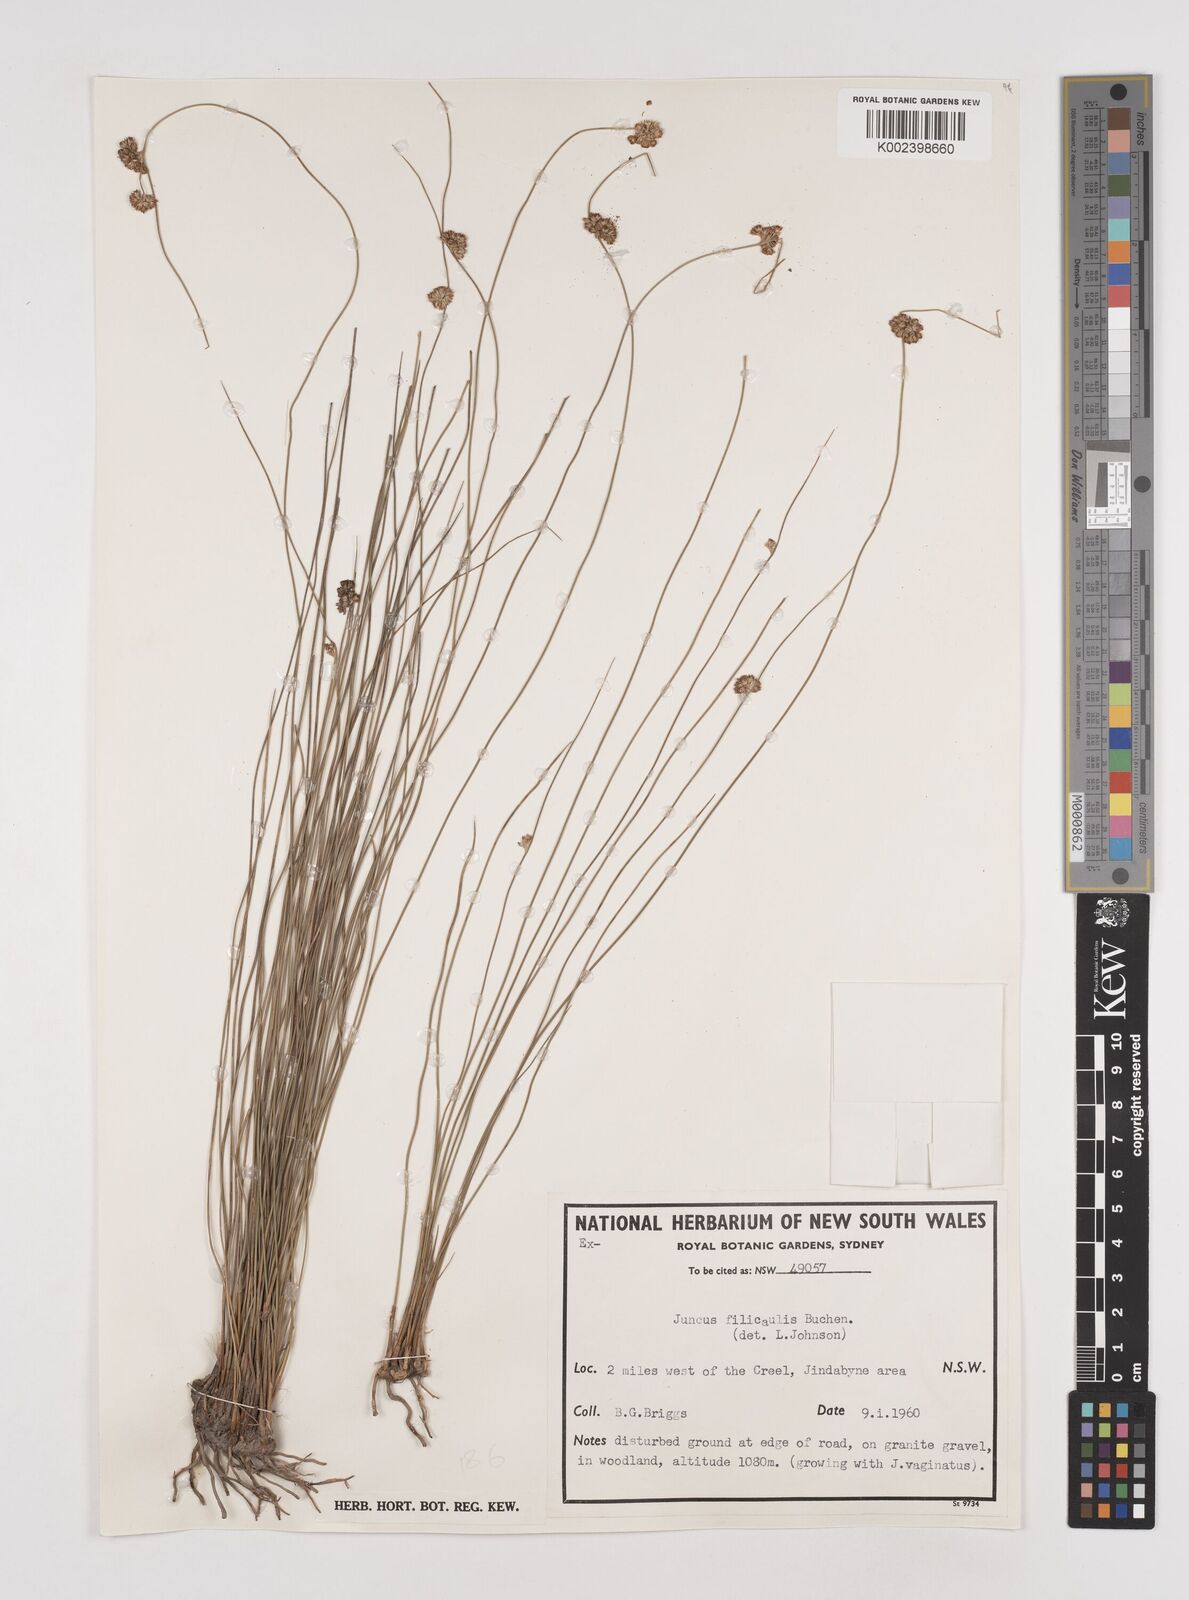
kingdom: Plantae
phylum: Tracheophyta
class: Liliopsida
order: Poales
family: Juncaceae
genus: Juncus
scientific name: Juncus filicaulis
